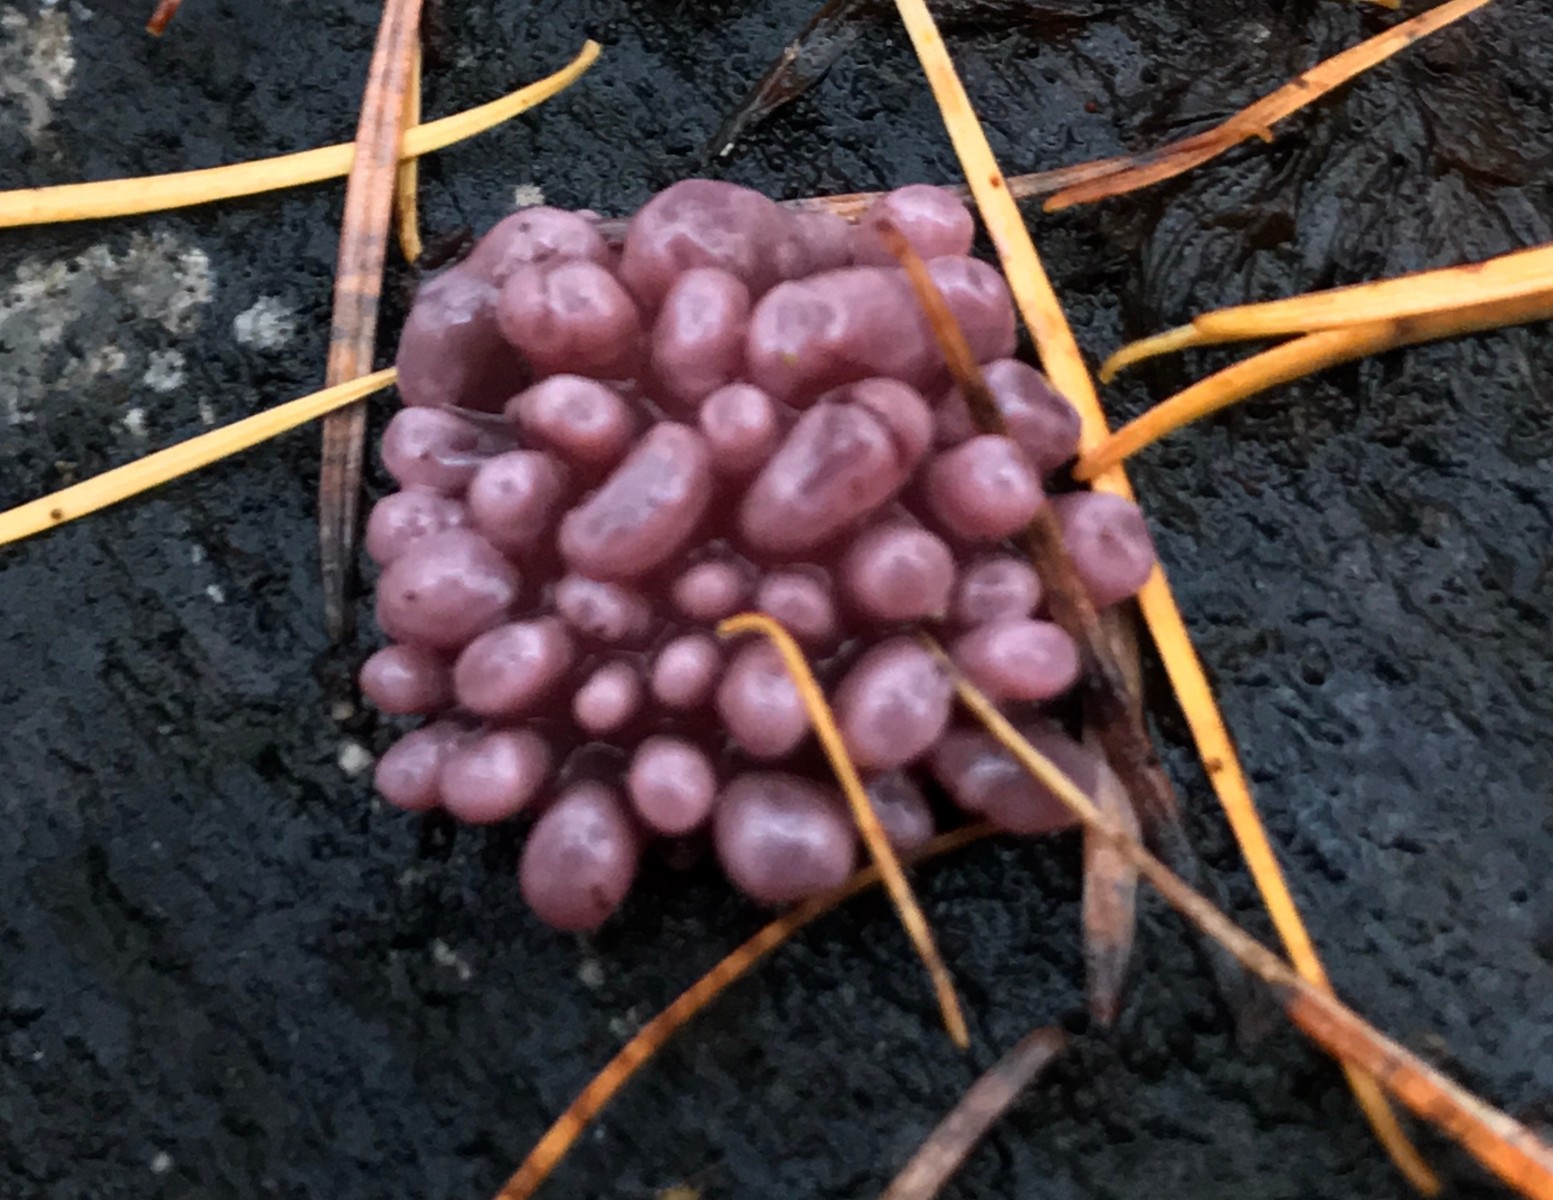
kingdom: Fungi
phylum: Ascomycota
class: Leotiomycetes
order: Helotiales
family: Gelatinodiscaceae
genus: Ascocoryne
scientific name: Ascocoryne sarcoides
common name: rødlilla sejskive
